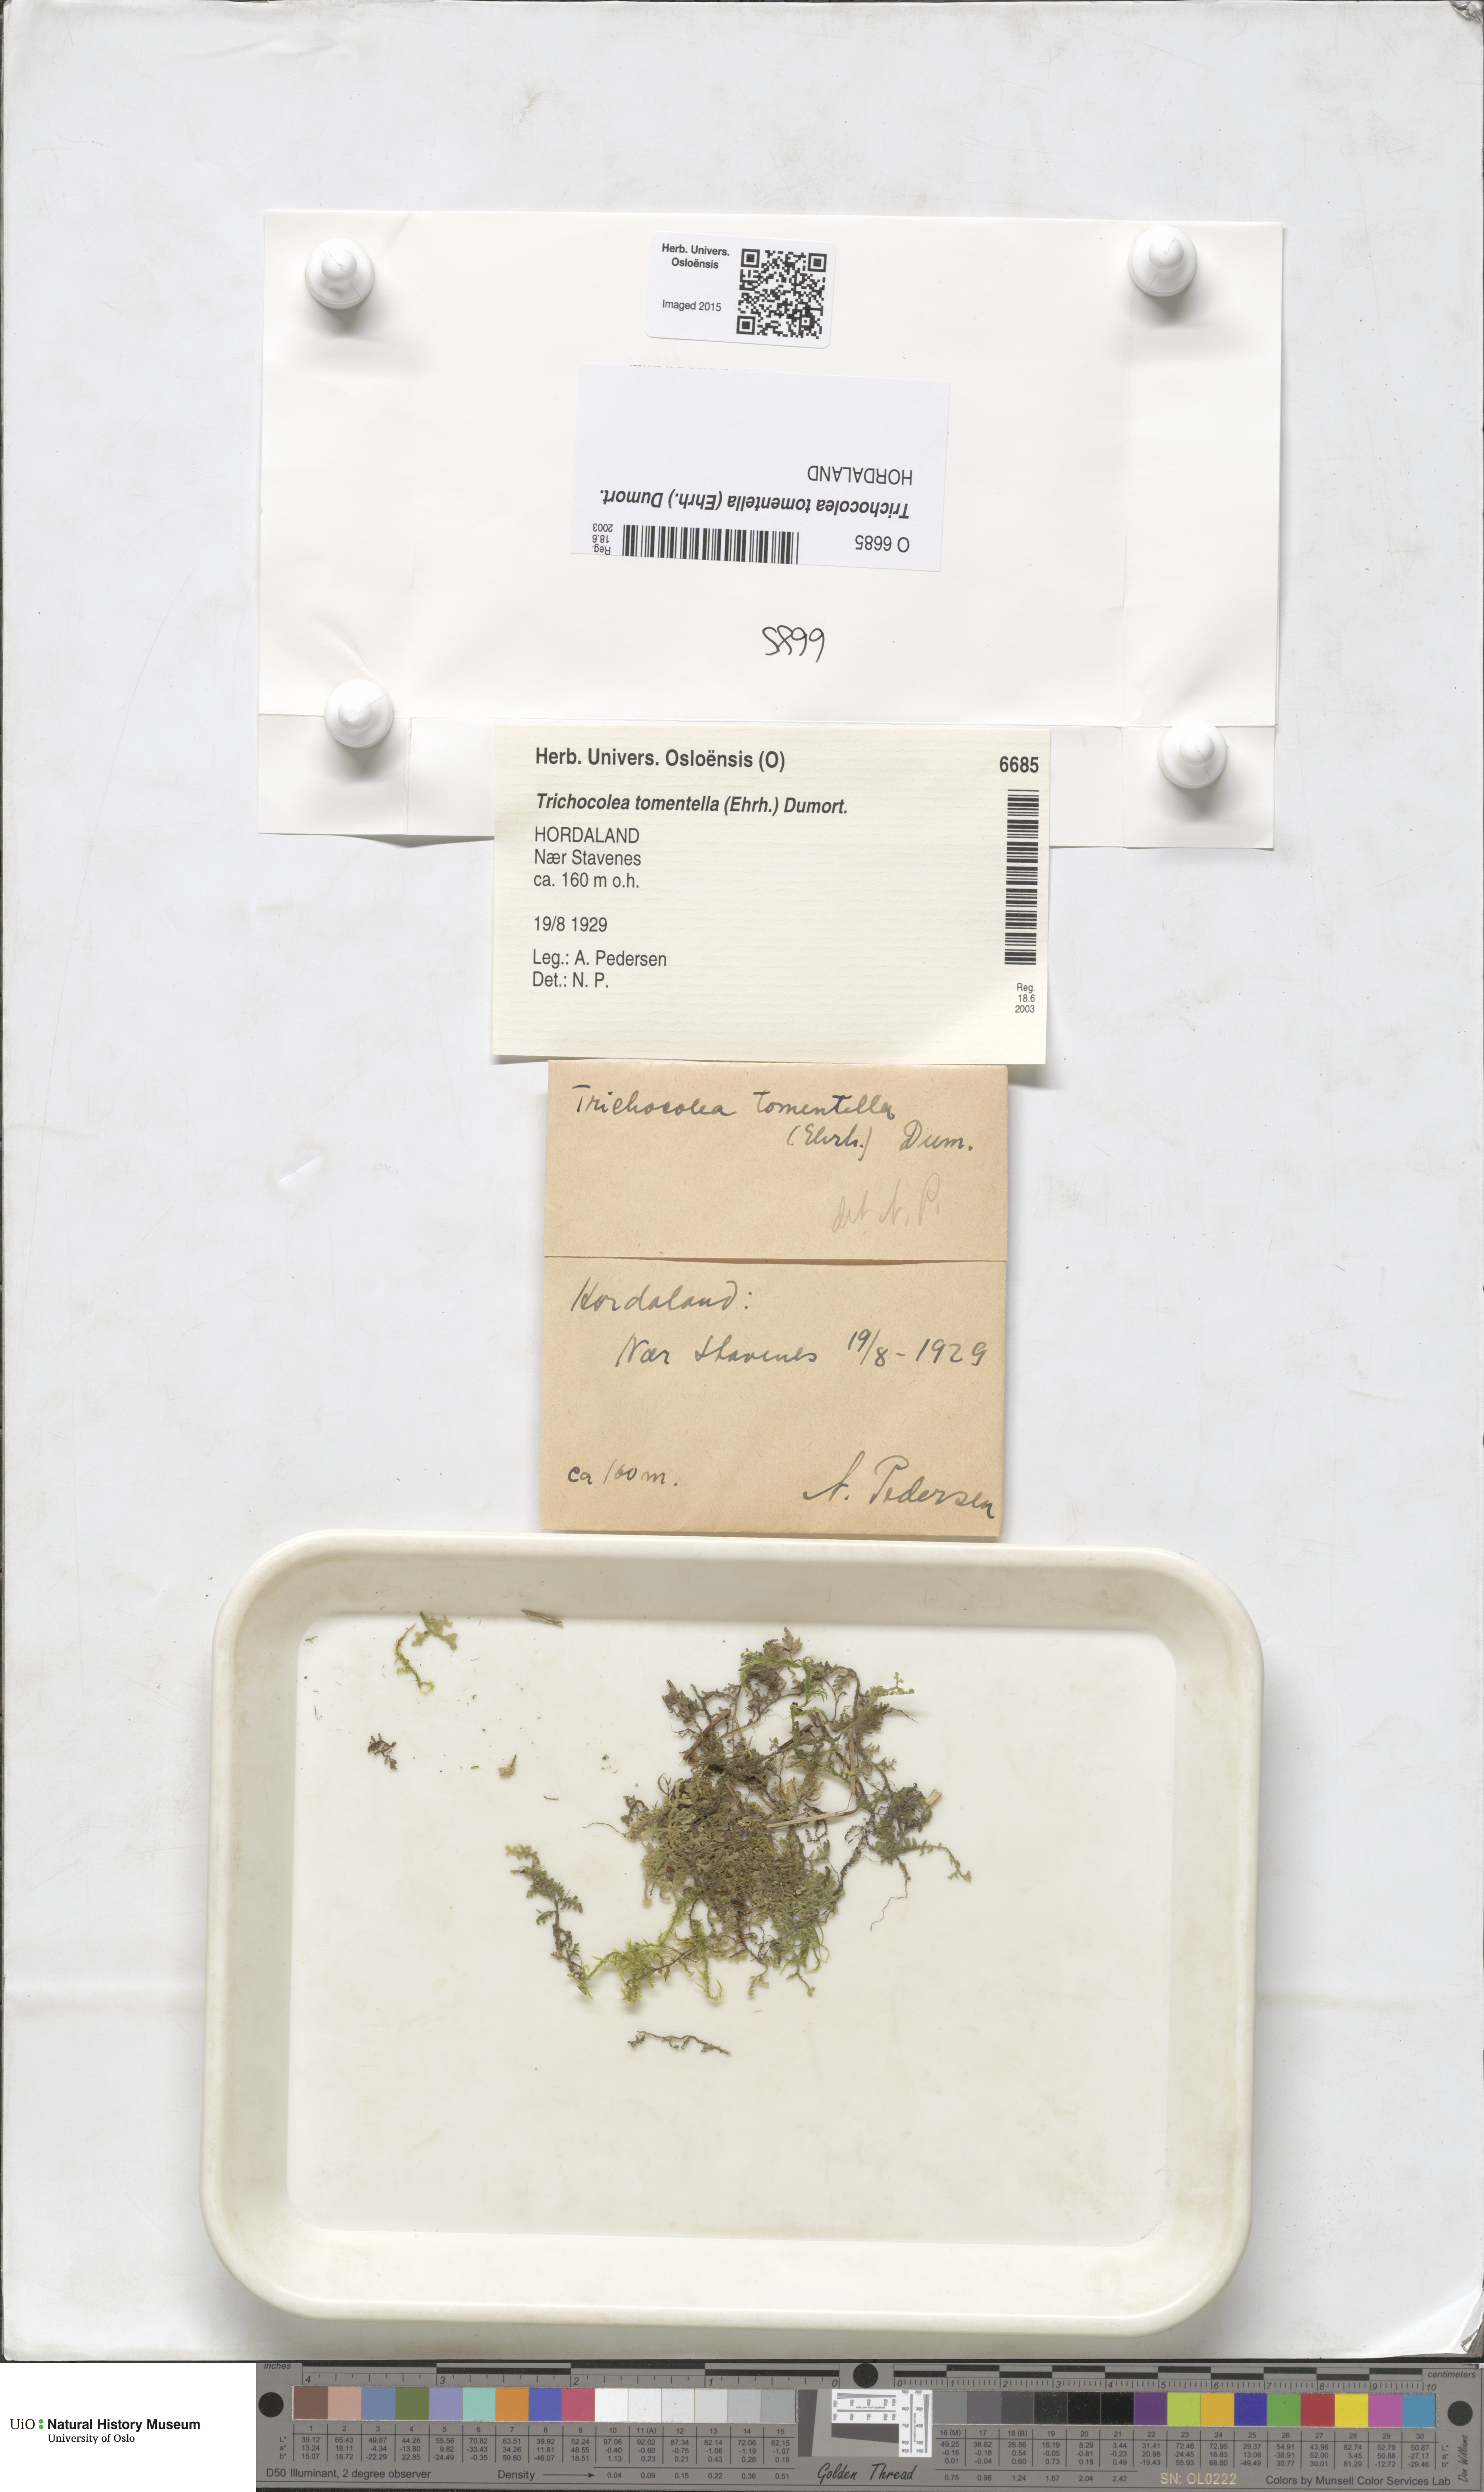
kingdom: Plantae
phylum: Marchantiophyta
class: Jungermanniopsida
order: Jungermanniales
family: Trichocoleaceae
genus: Trichocolea
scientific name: Trichocolea tomentella
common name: Woolly liverwort
